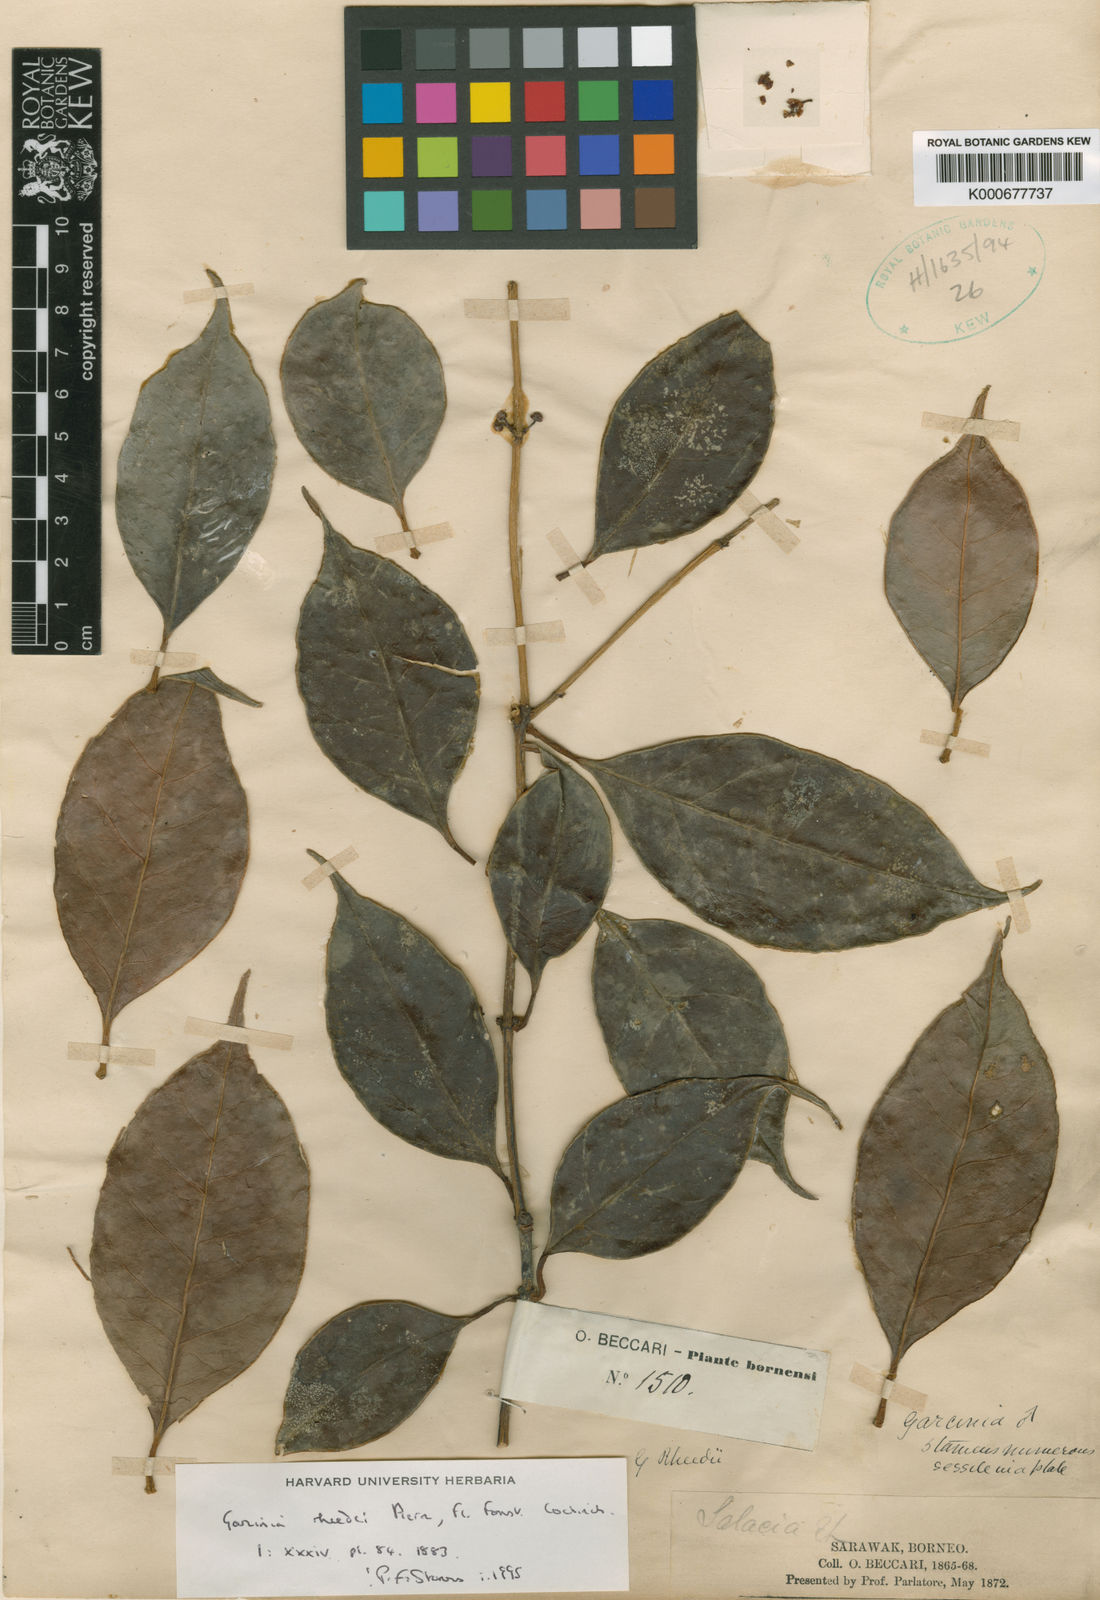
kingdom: Plantae
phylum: Tracheophyta
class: Magnoliopsida
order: Malpighiales
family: Clusiaceae
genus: Garcinia
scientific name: Garcinia rheedei
